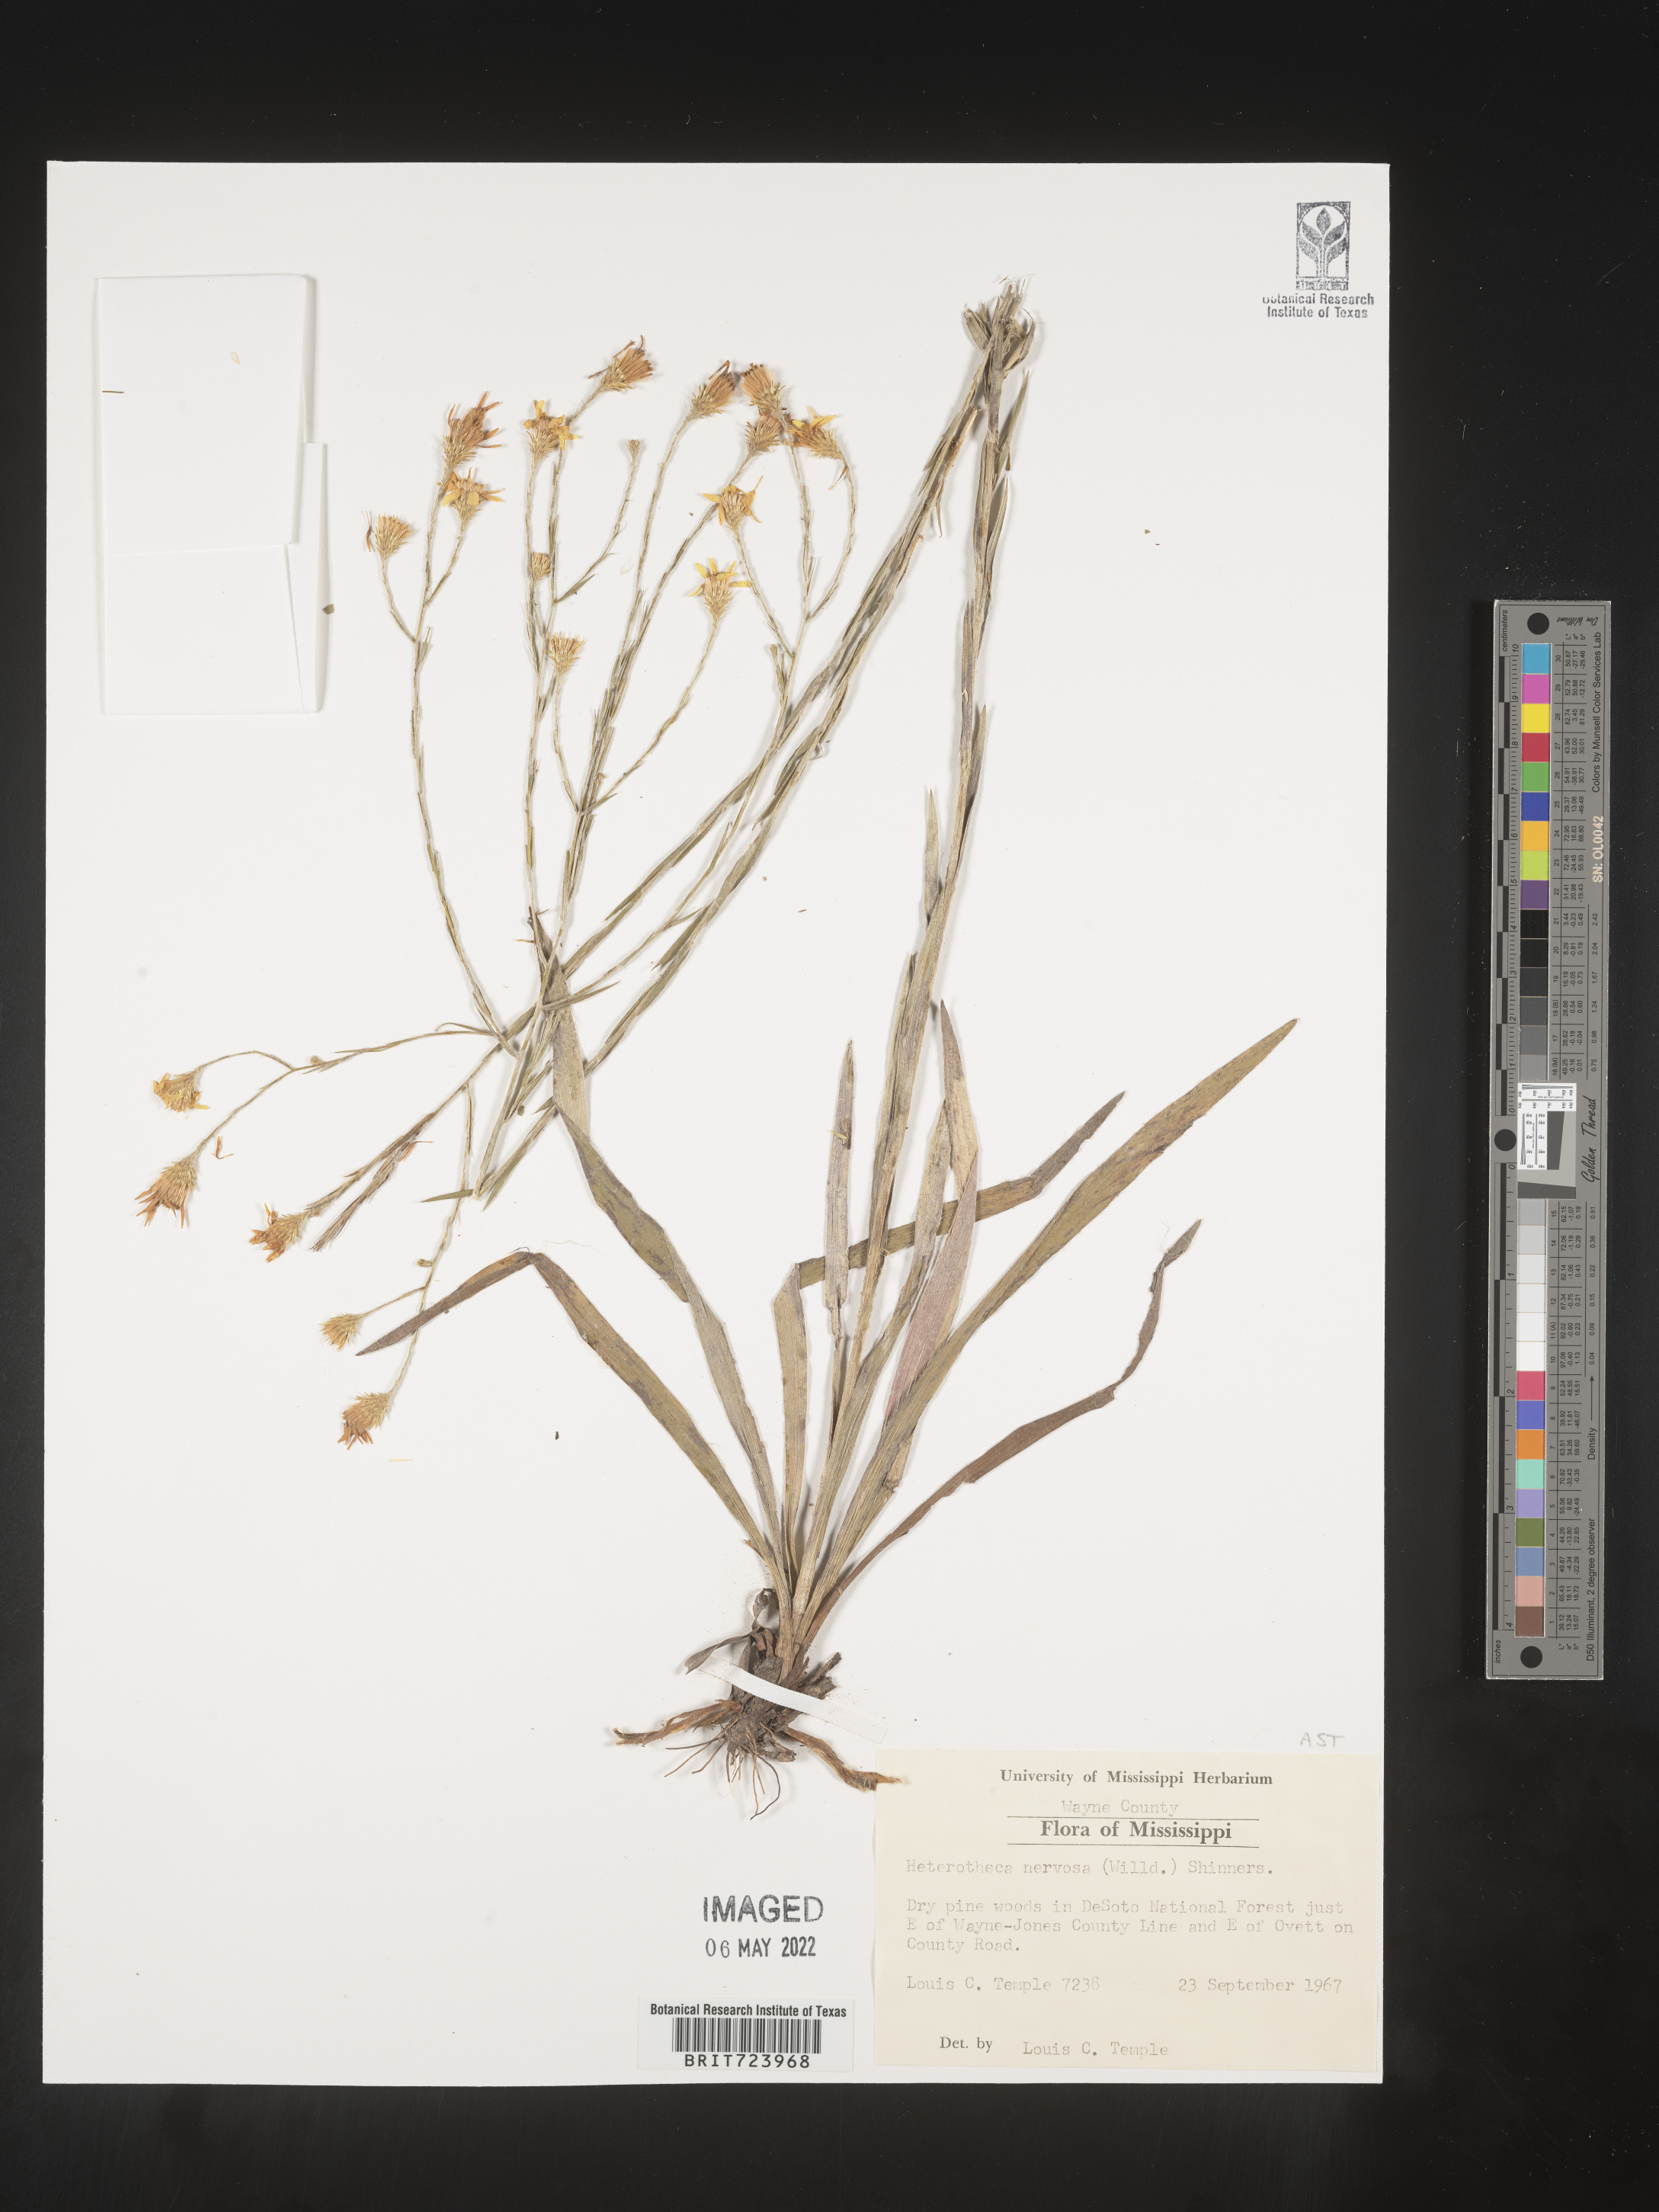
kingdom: Plantae
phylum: Tracheophyta
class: Magnoliopsida
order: Asterales
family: Asteraceae
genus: Pityopsis
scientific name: Pityopsis graminifolia
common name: Grass-leaf golden-aster
